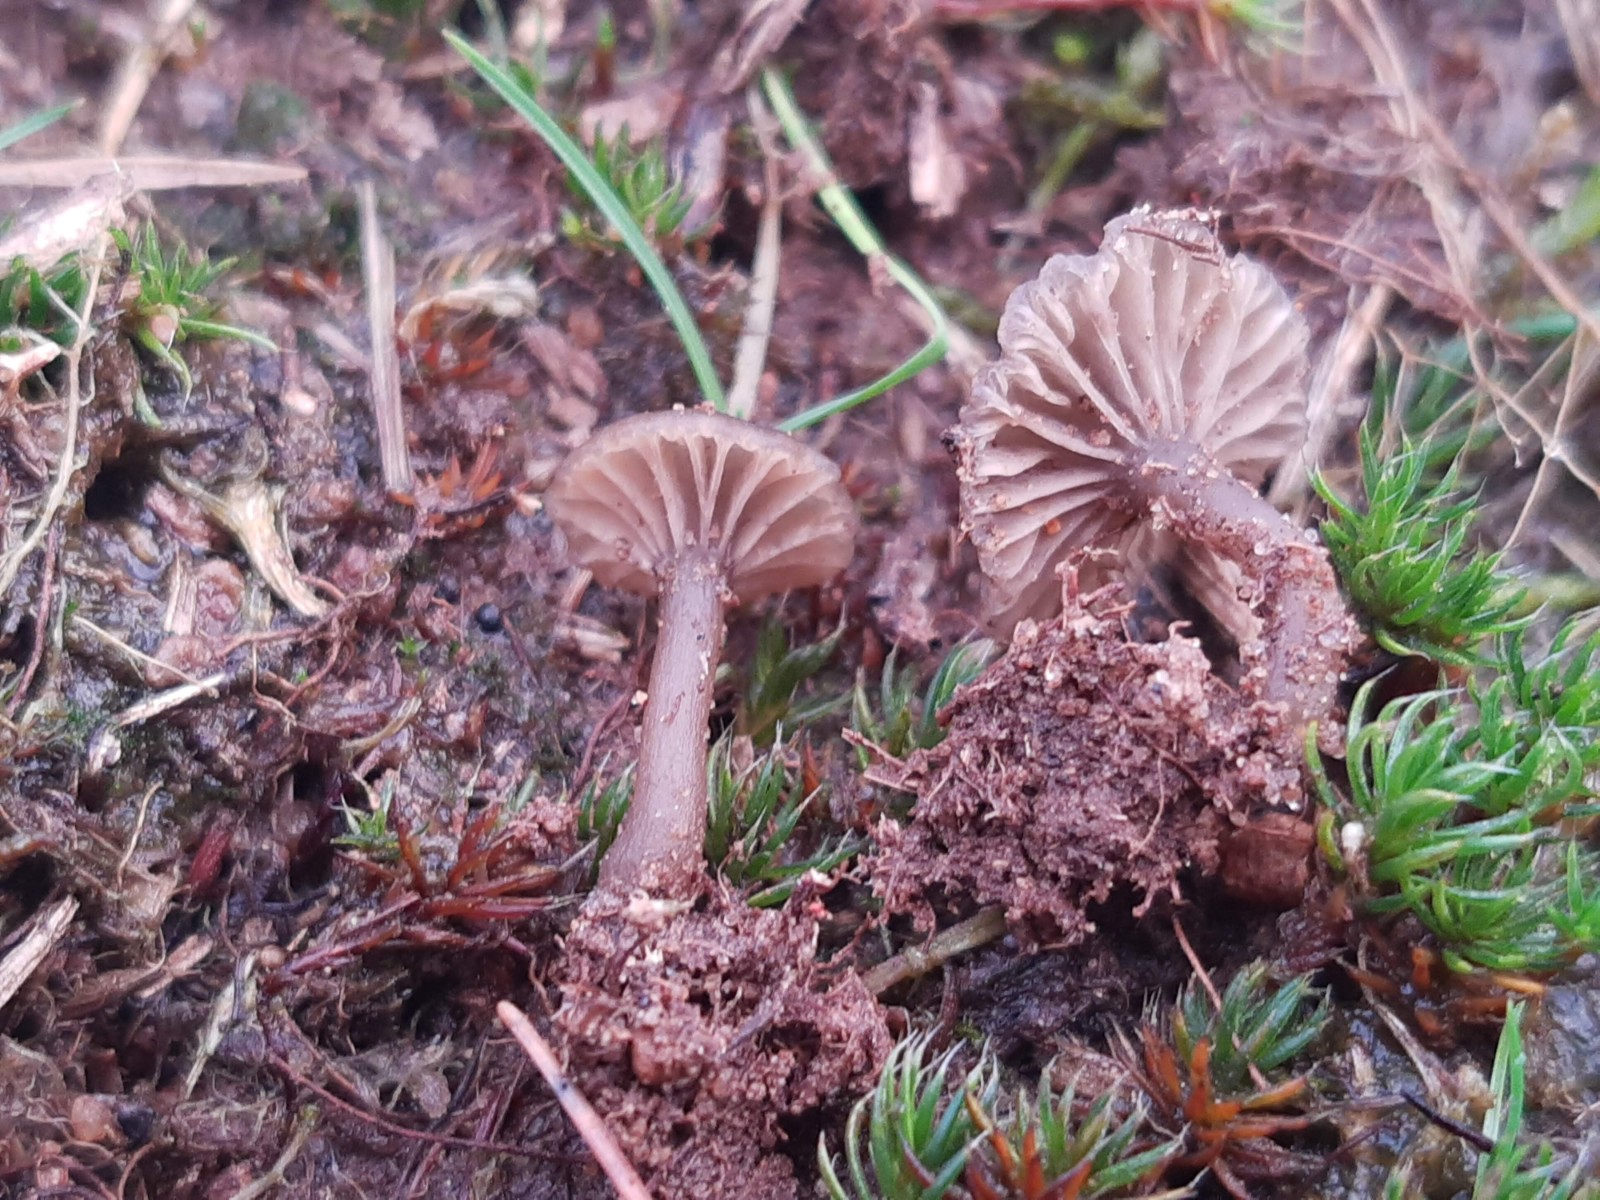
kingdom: Fungi
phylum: Basidiomycota
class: Agaricomycetes
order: Agaricales
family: Hygrophoraceae
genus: Arrhenia
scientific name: Arrhenia obscurata
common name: hede-fontænehat
